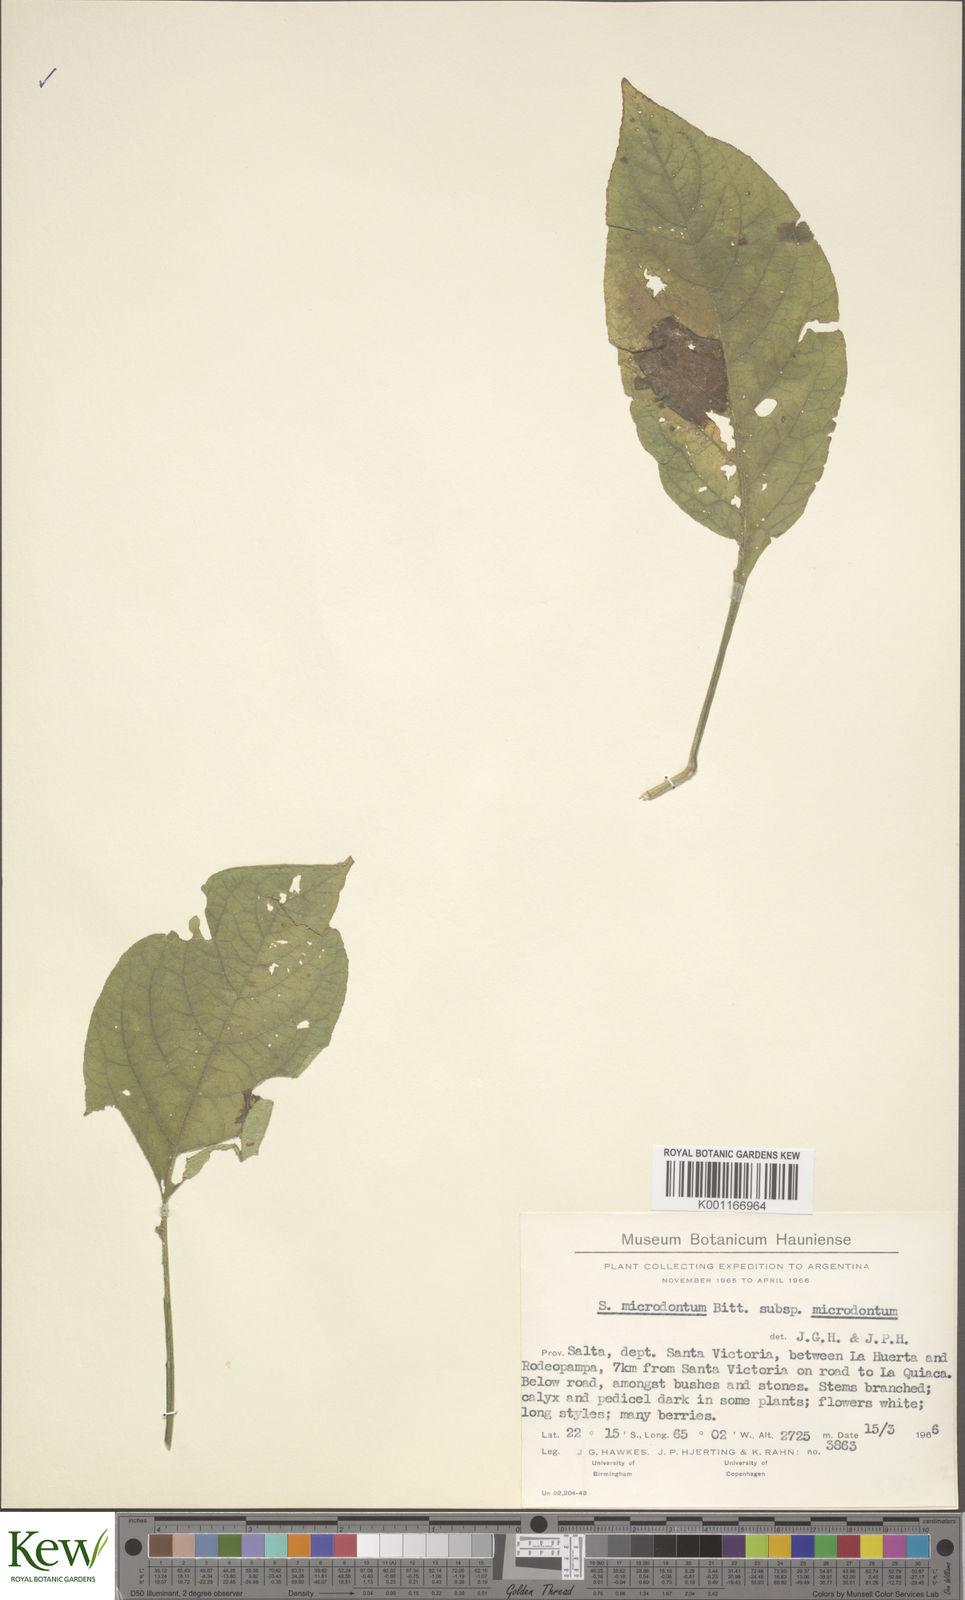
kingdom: Plantae
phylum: Tracheophyta
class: Magnoliopsida
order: Solanales
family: Solanaceae
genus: Solanum
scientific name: Solanum microdontum
